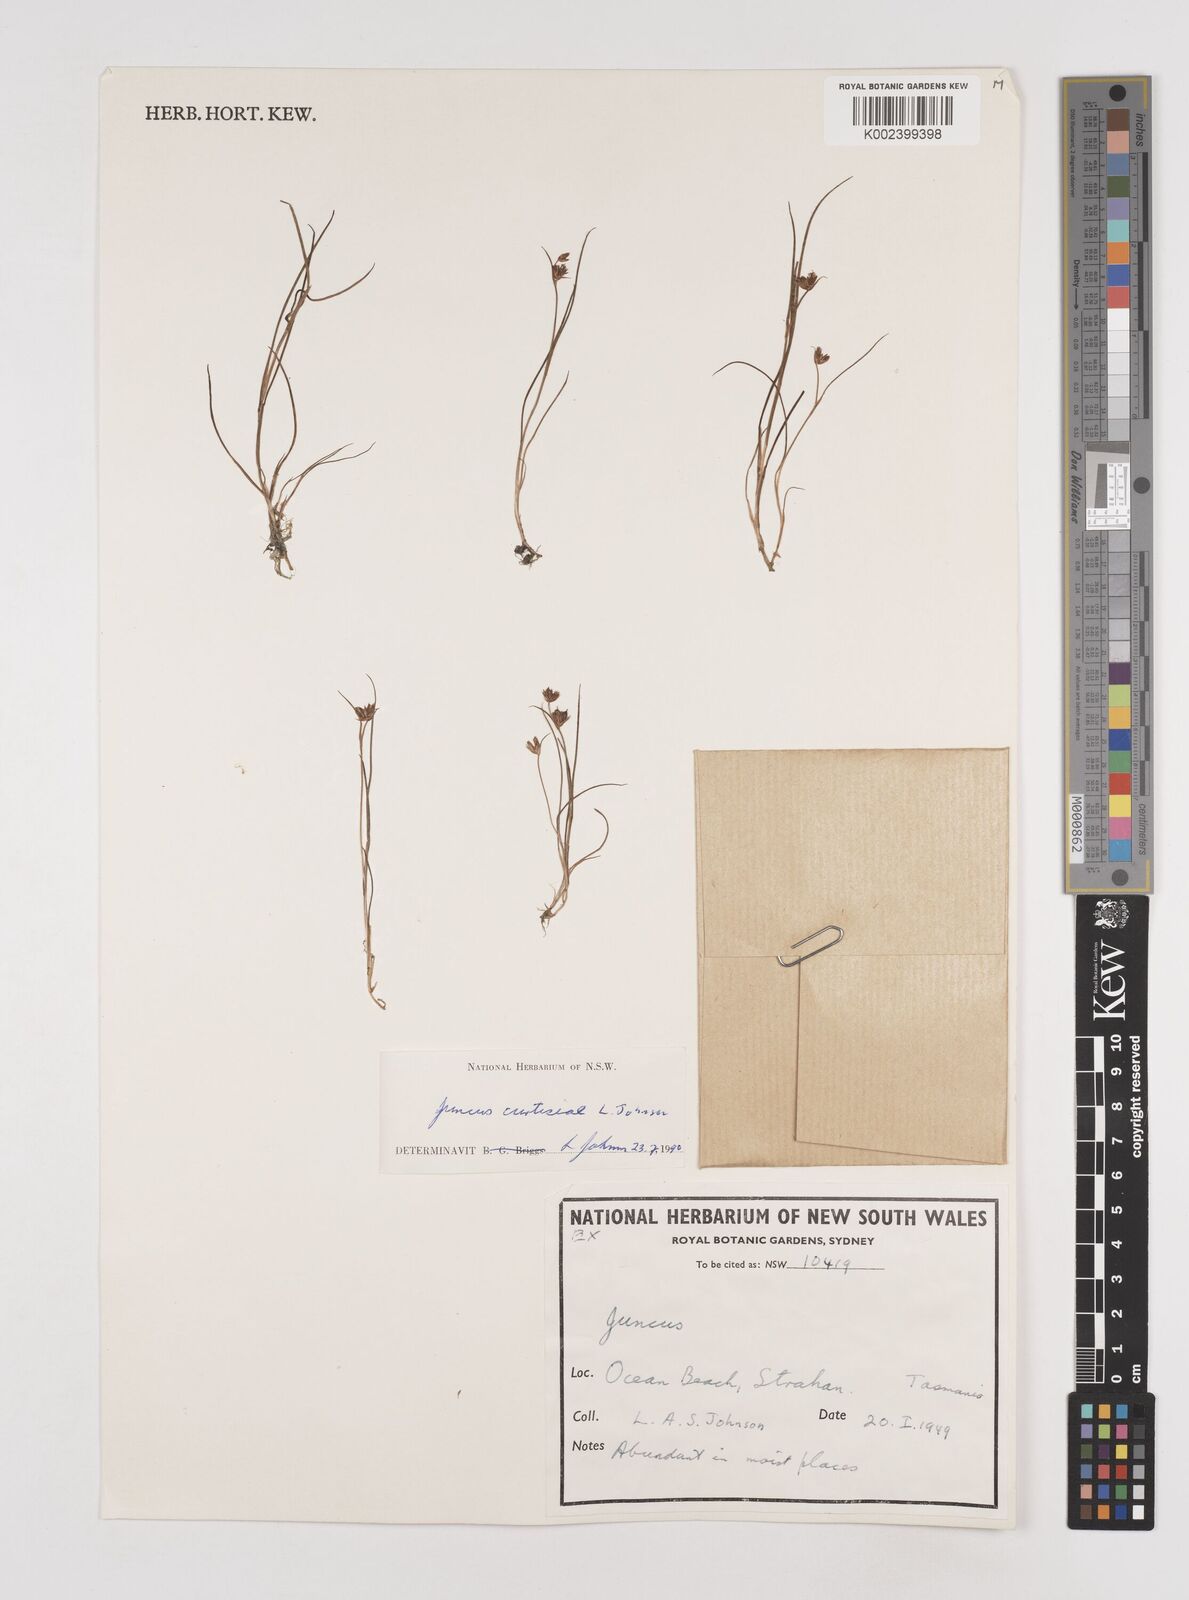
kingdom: Plantae
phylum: Tracheophyta
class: Liliopsida
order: Poales
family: Juncaceae
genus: Juncus
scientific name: Juncus curtisiae
